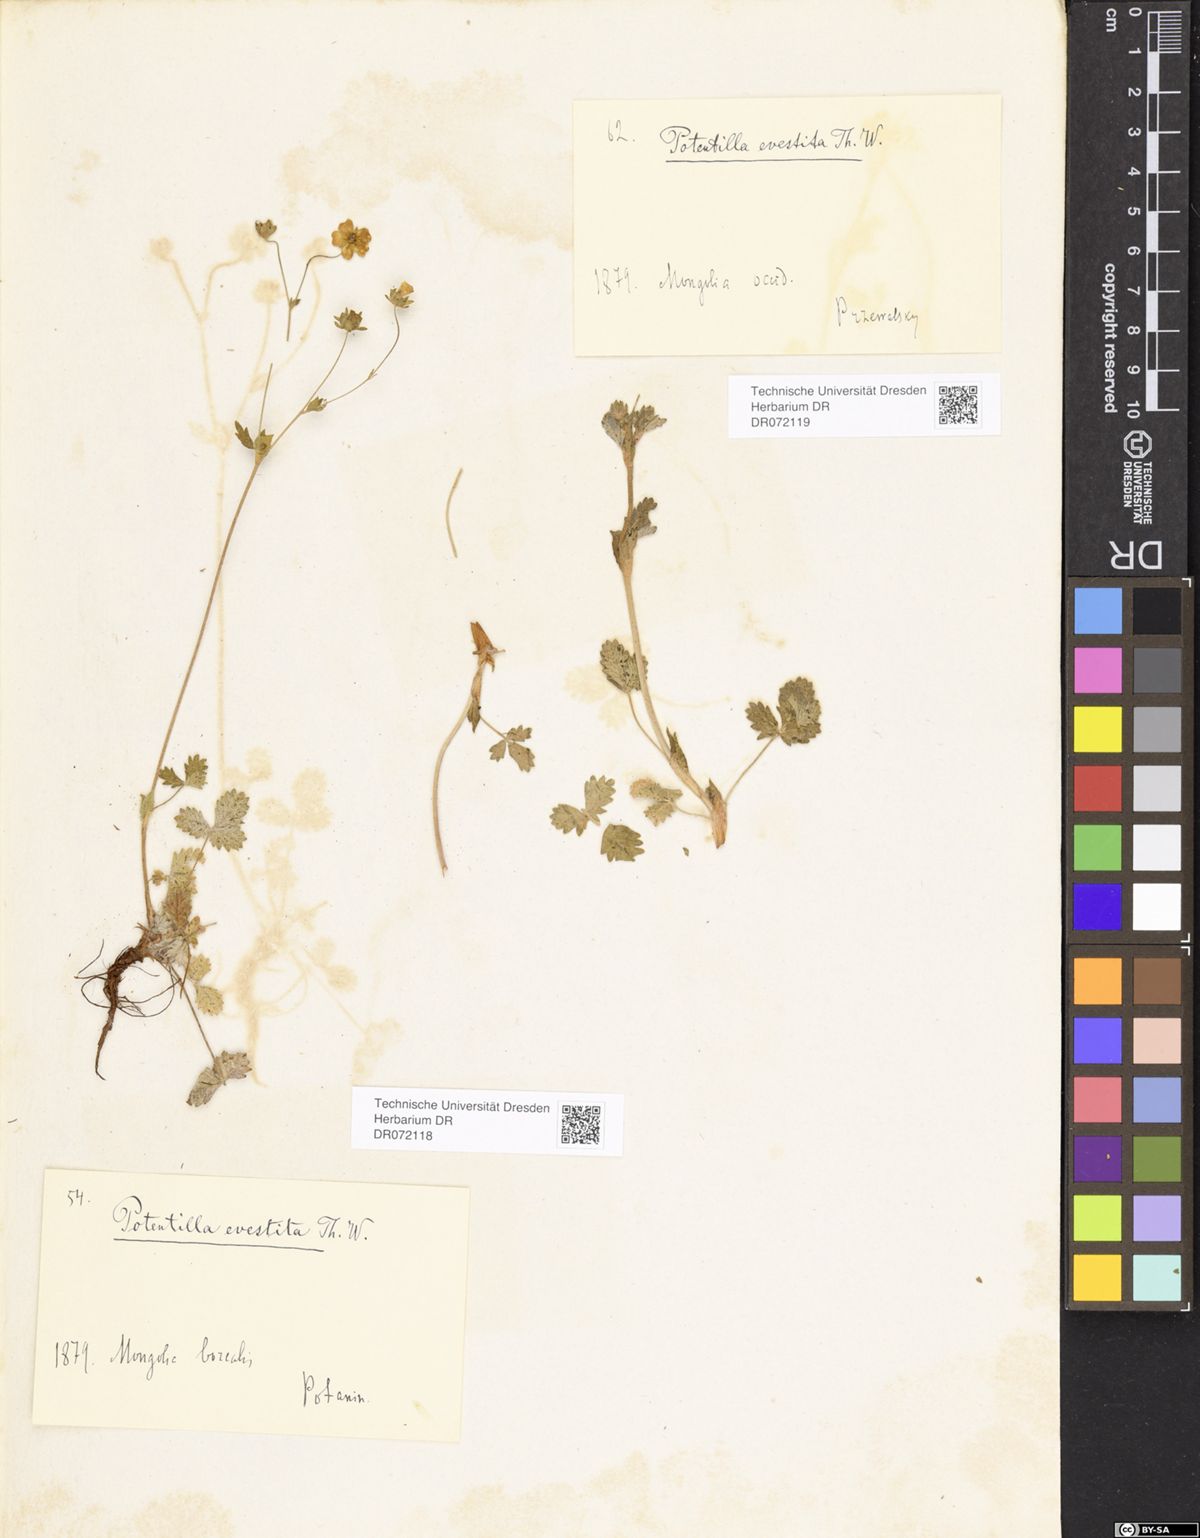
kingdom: Plantae
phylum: Tracheophyta
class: Magnoliopsida
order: Rosales
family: Rosaceae
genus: Potentilla
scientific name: Potentilla evestita
